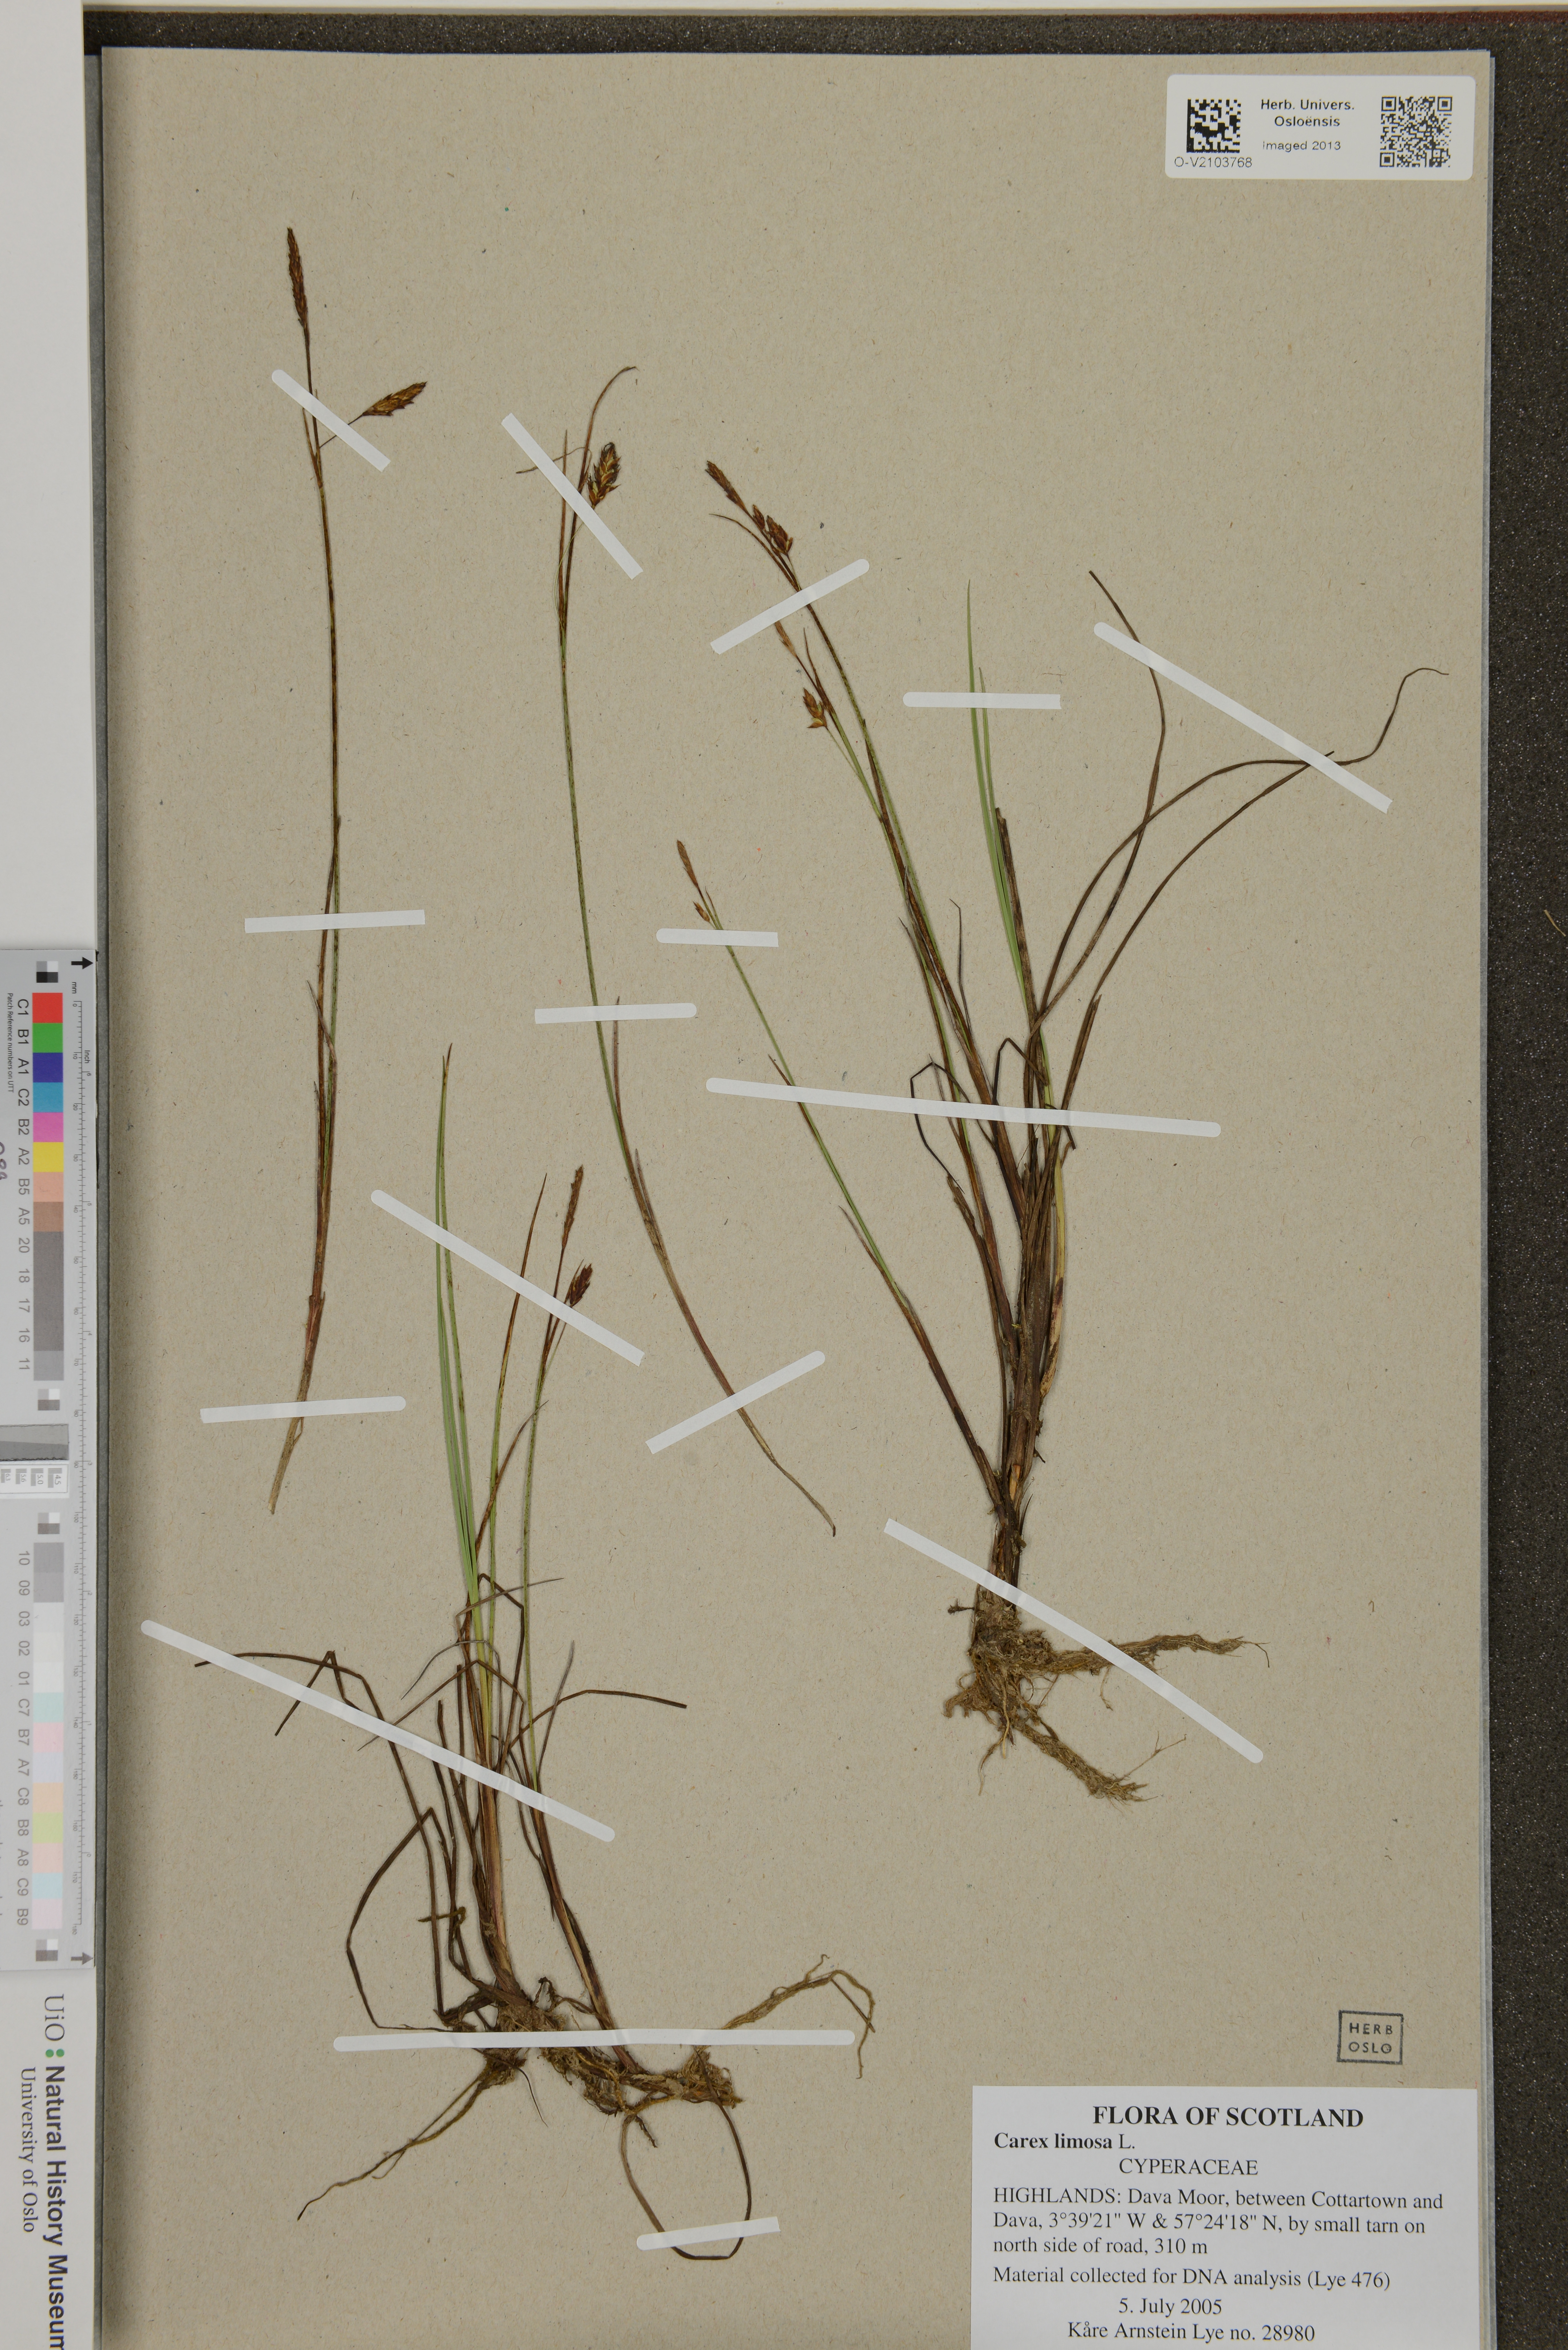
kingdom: Plantae
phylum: Tracheophyta
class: Liliopsida
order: Poales
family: Cyperaceae
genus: Carex
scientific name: Carex limosa
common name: Bog sedge
